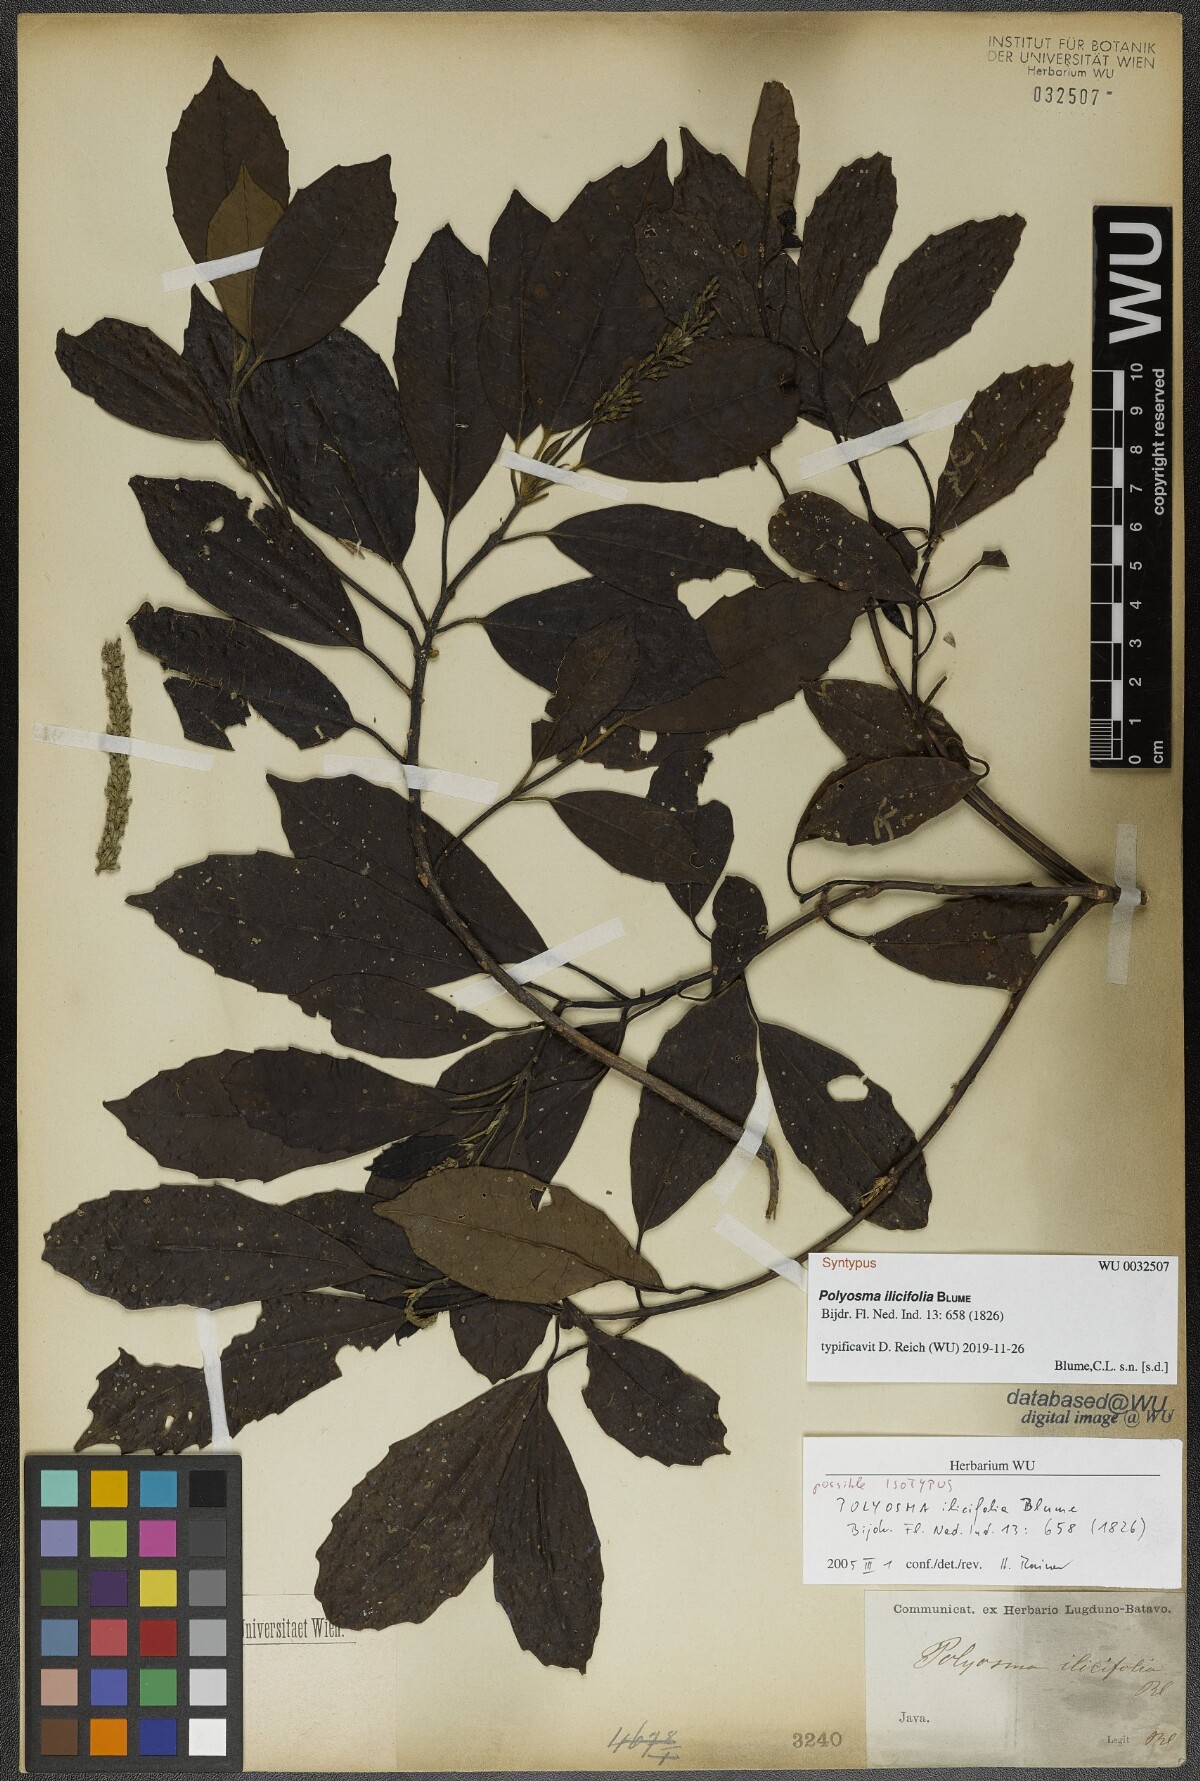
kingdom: Plantae
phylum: Tracheophyta
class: Magnoliopsida
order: Escalloniales
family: Escalloniaceae
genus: Polyosma
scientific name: Polyosma ilicifolia
